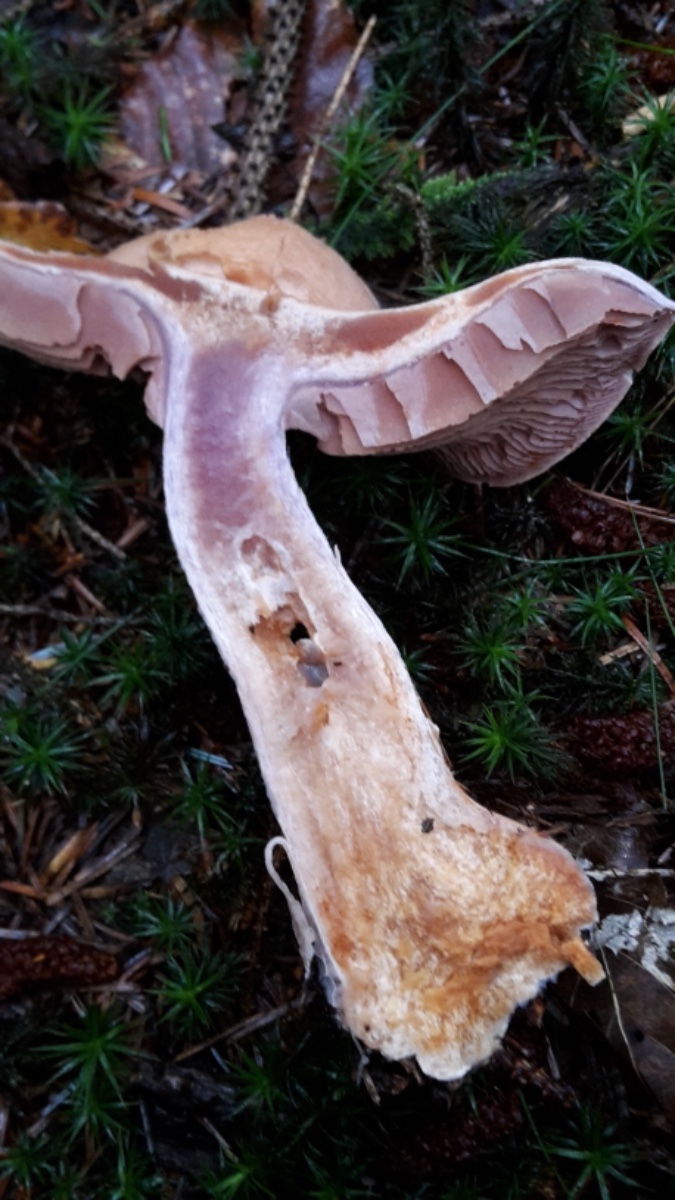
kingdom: Fungi
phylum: Basidiomycota
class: Agaricomycetes
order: Agaricales
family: Cortinariaceae
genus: Cortinarius
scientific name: Cortinarius camphoratus
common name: stinkende slørhat
